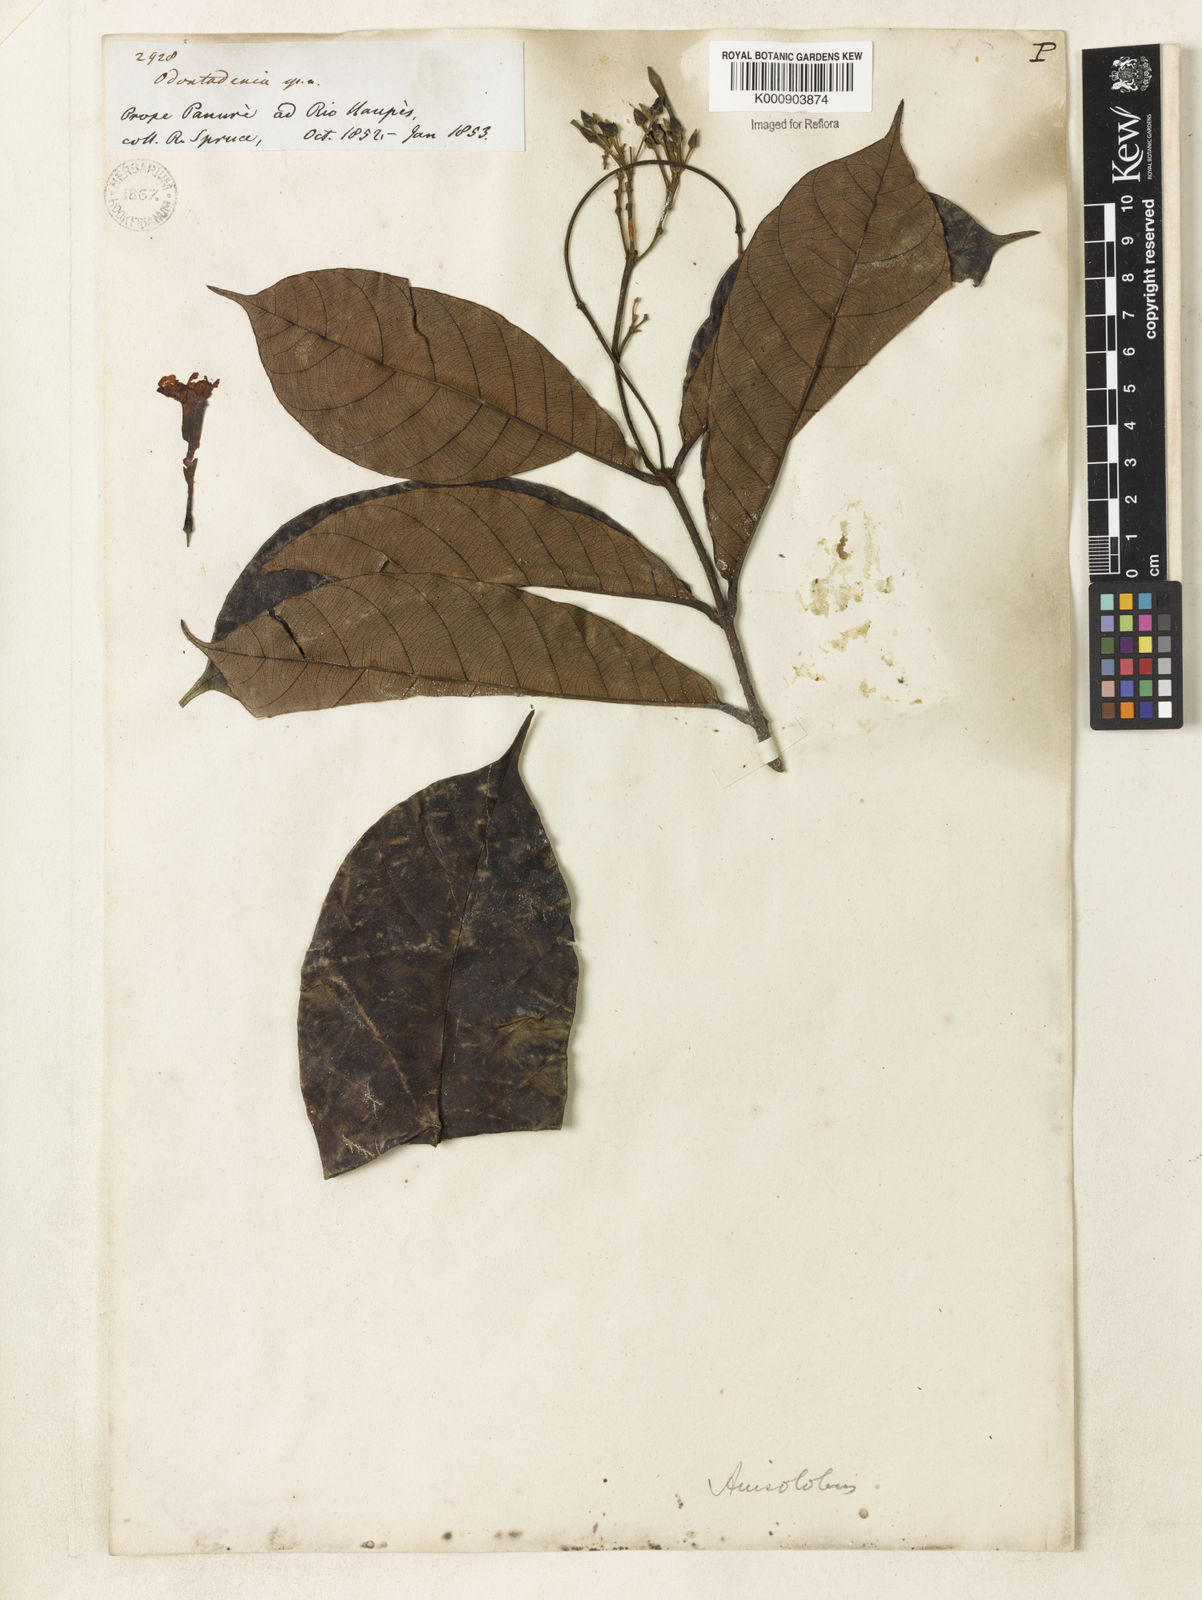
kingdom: Plantae
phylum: Tracheophyta
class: Magnoliopsida
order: Gentianales
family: Apocynaceae
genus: Odontadenia
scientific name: Odontadenia verrucosa
